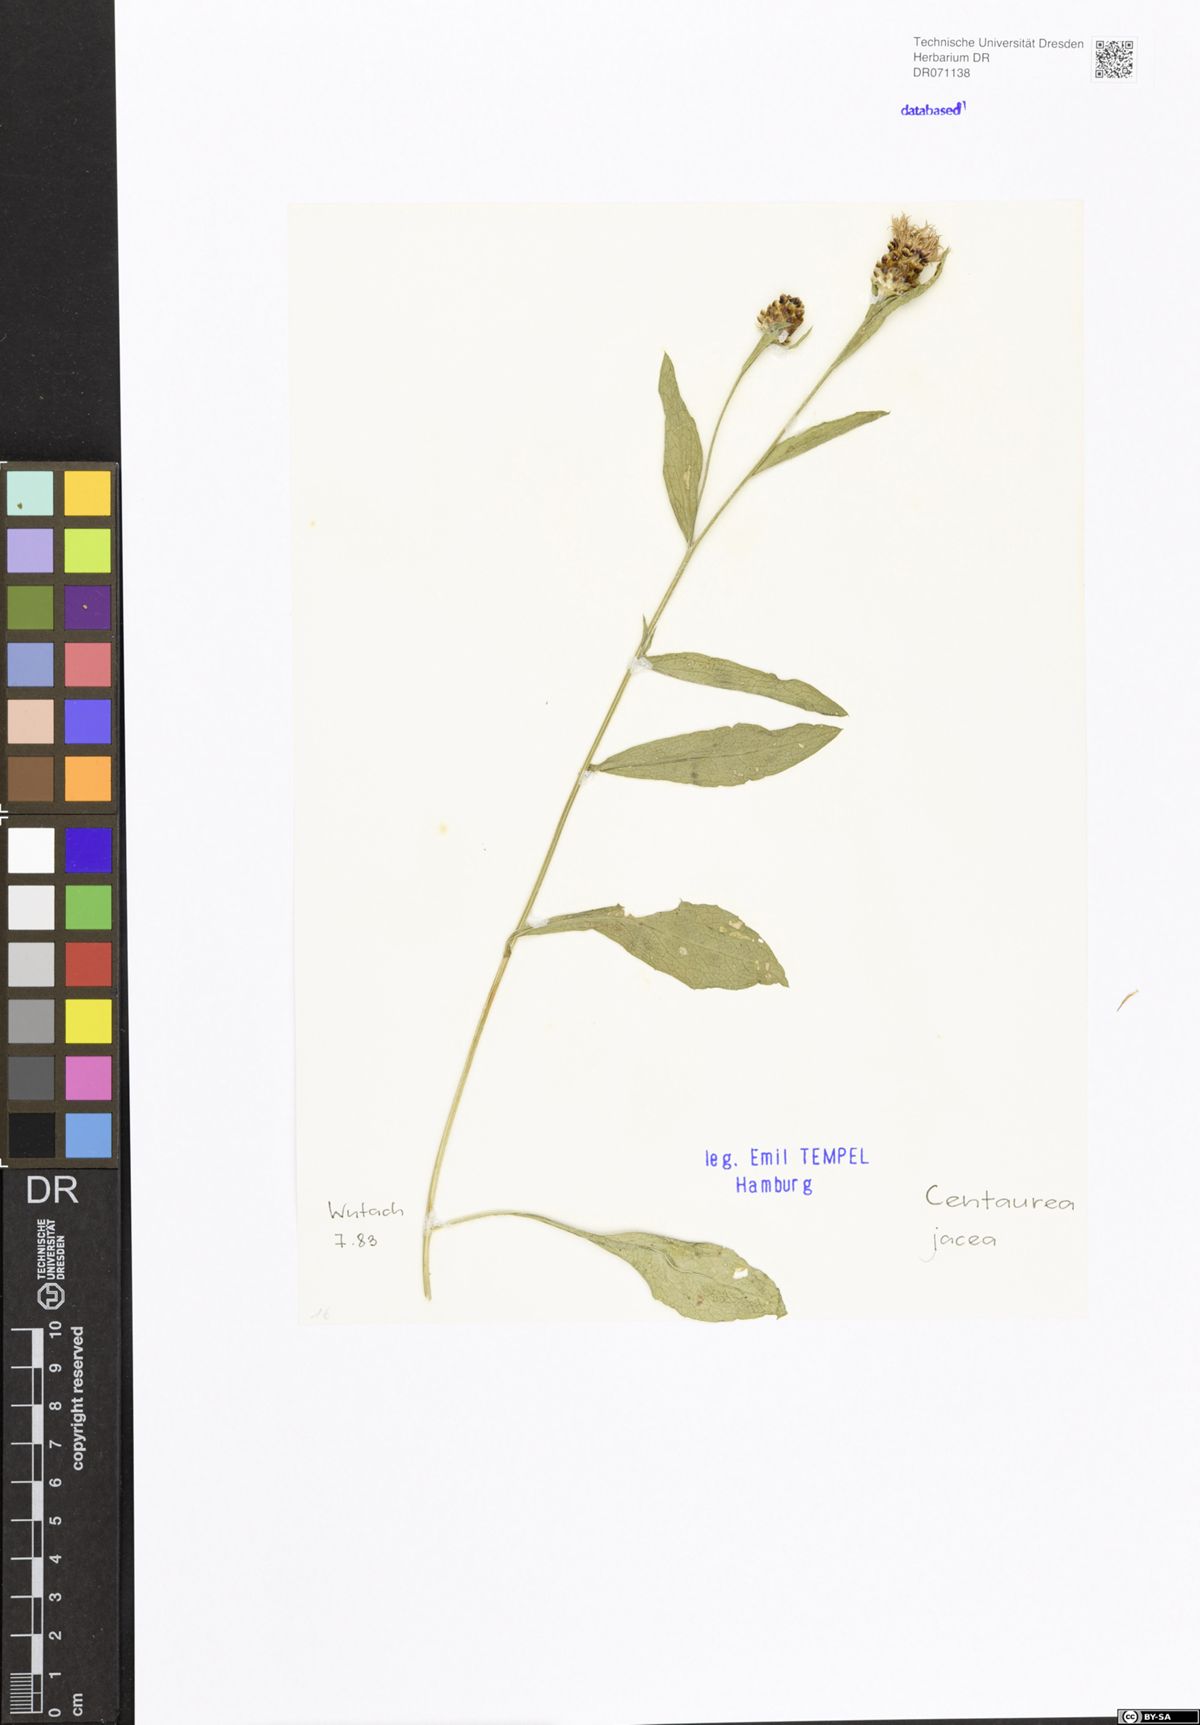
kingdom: Plantae
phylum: Tracheophyta
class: Magnoliopsida
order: Asterales
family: Asteraceae
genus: Centaurea
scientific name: Centaurea jacea
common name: Brown knapweed
